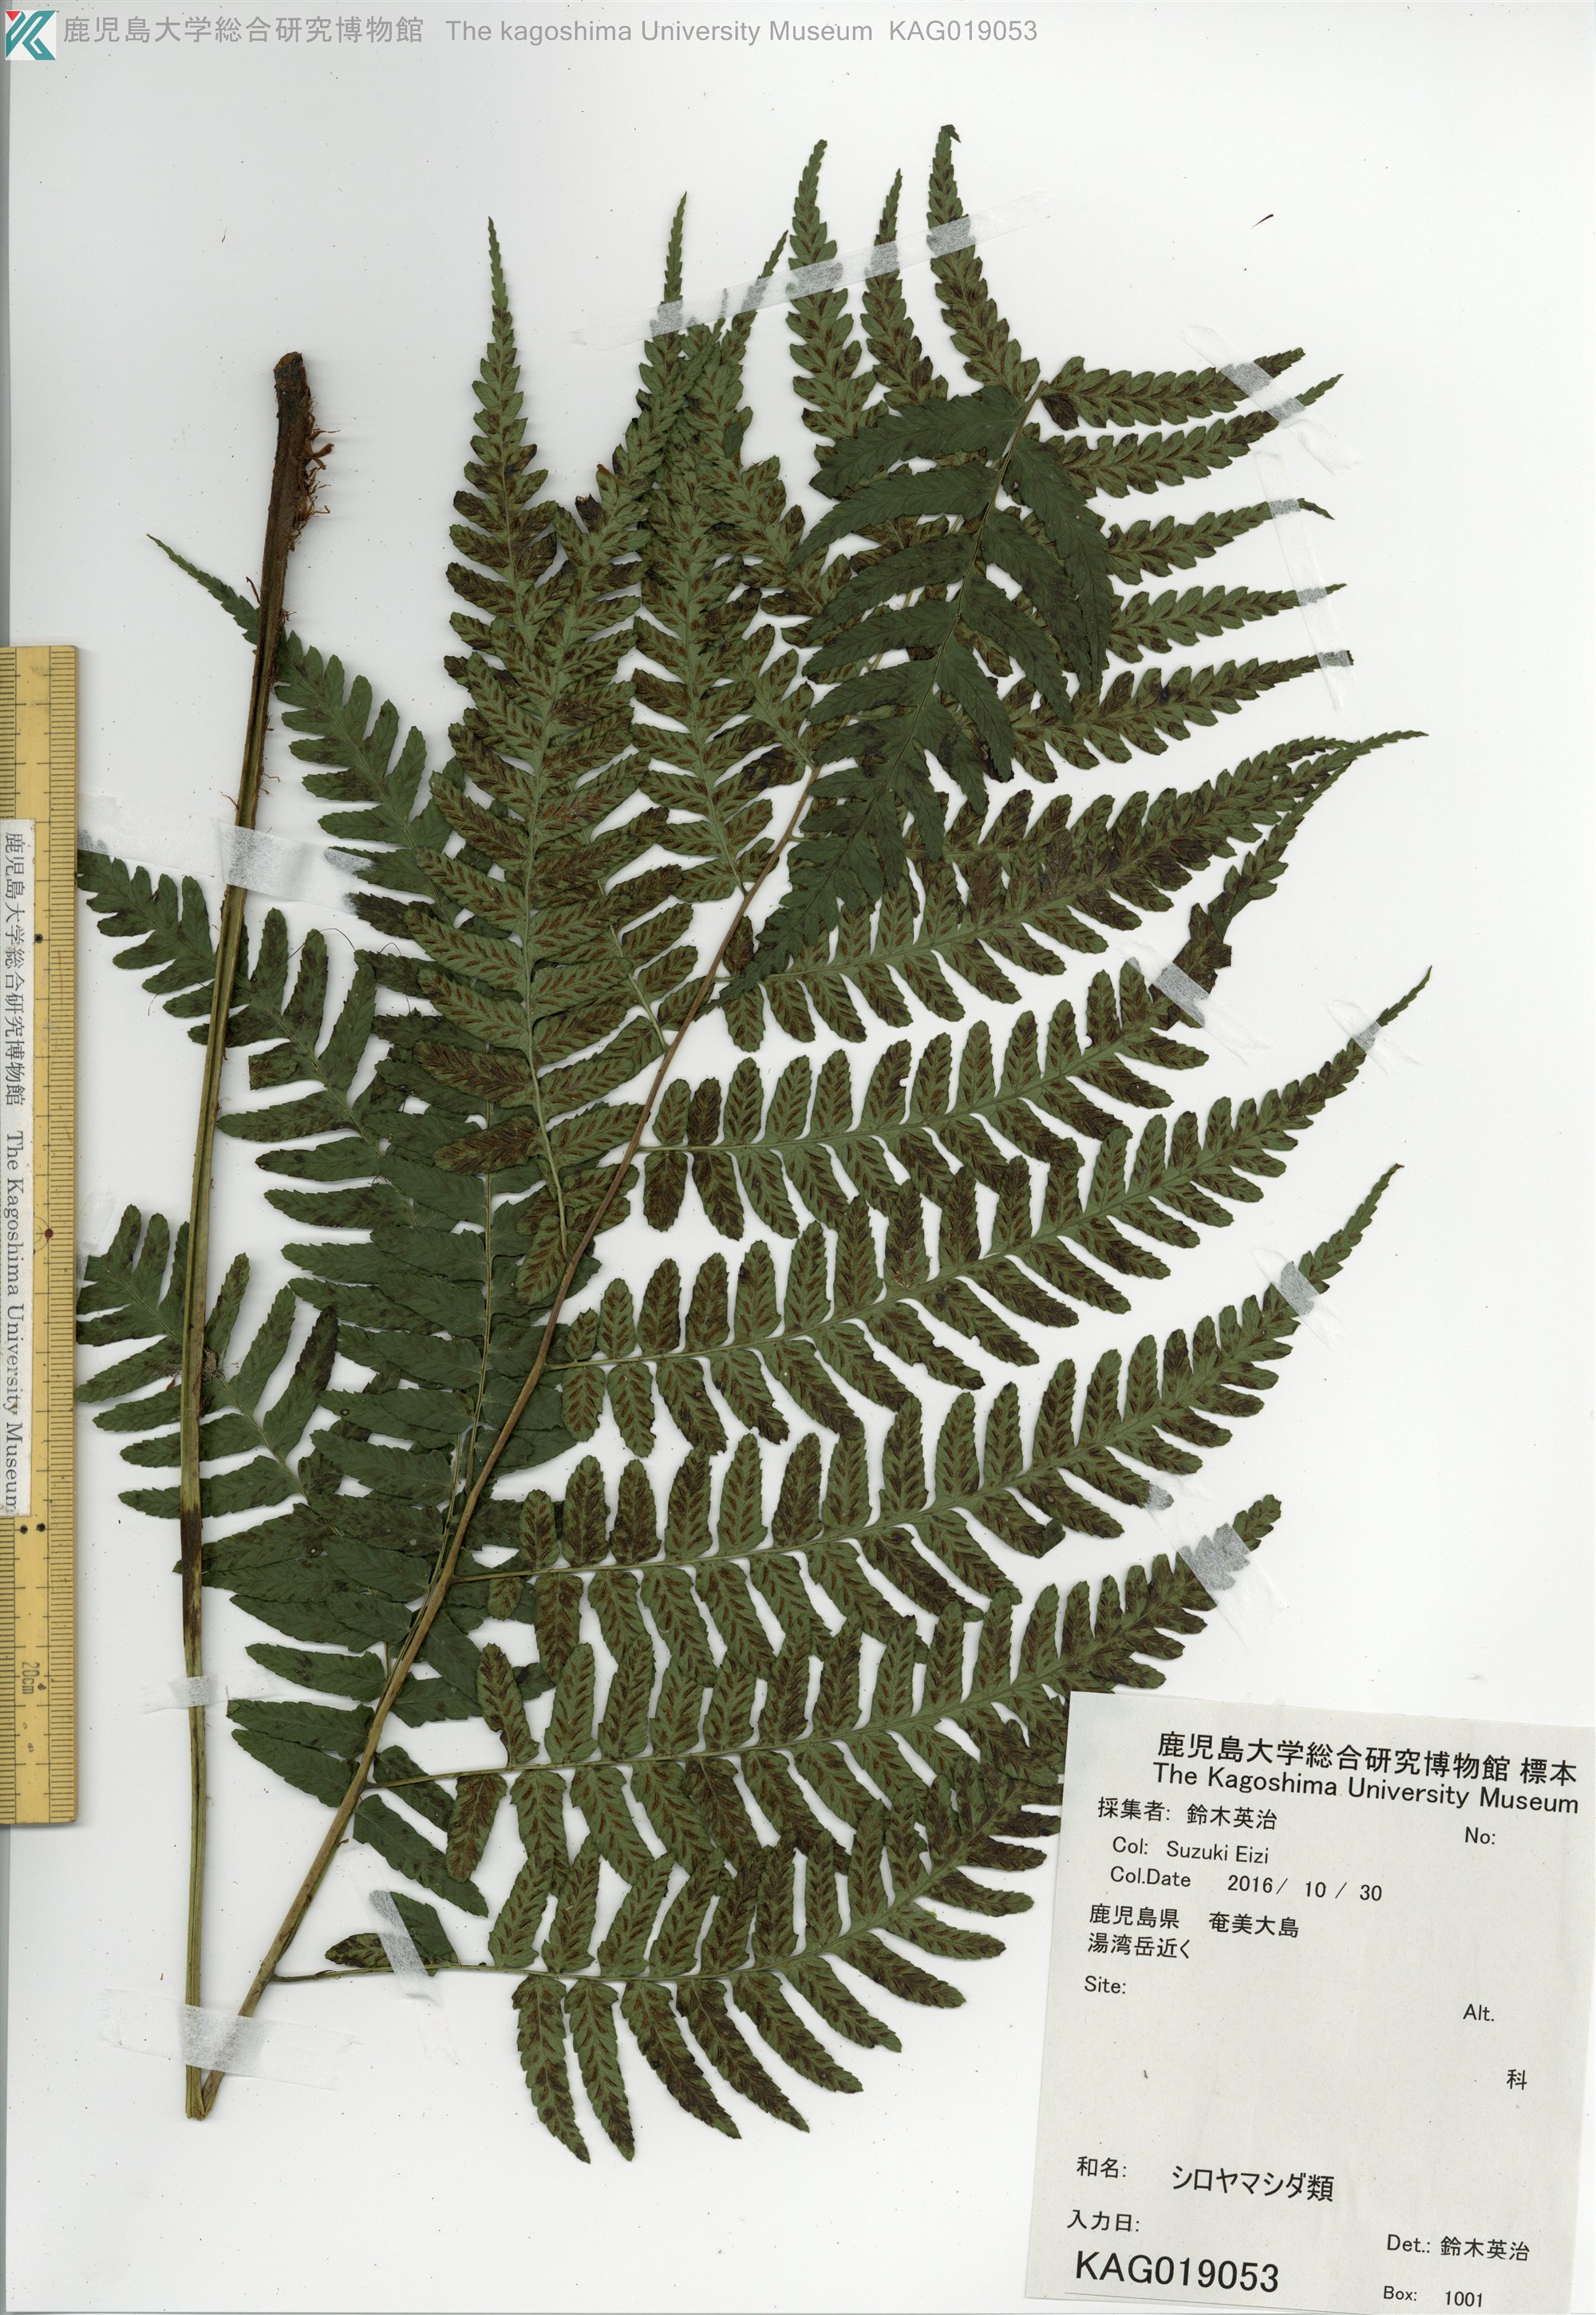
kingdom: Plantae
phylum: Tracheophyta
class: Polypodiopsida
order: Polypodiales
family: Athyriaceae
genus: Diplazium
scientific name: Diplazium laxifrons
